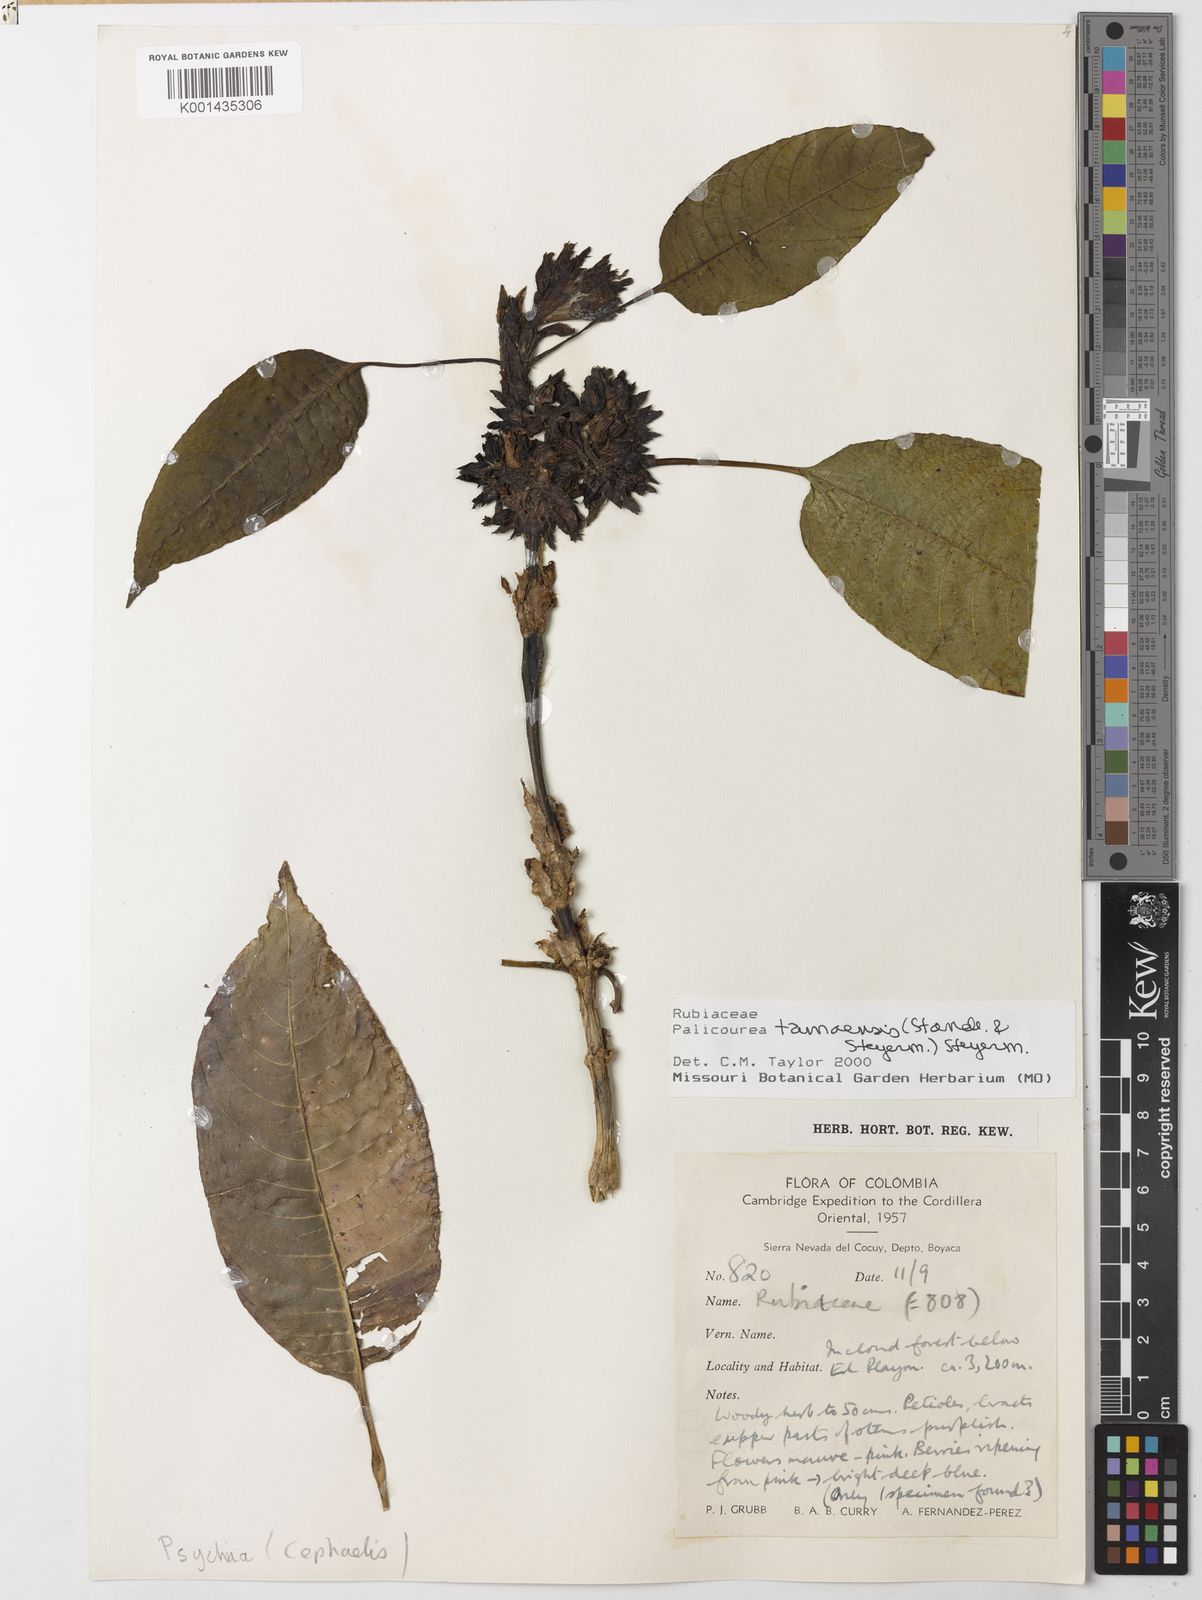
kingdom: Plantae
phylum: Tracheophyta
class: Magnoliopsida
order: Gentianales
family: Rubiaceae
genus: Palicourea
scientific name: Palicourea tamaensis
